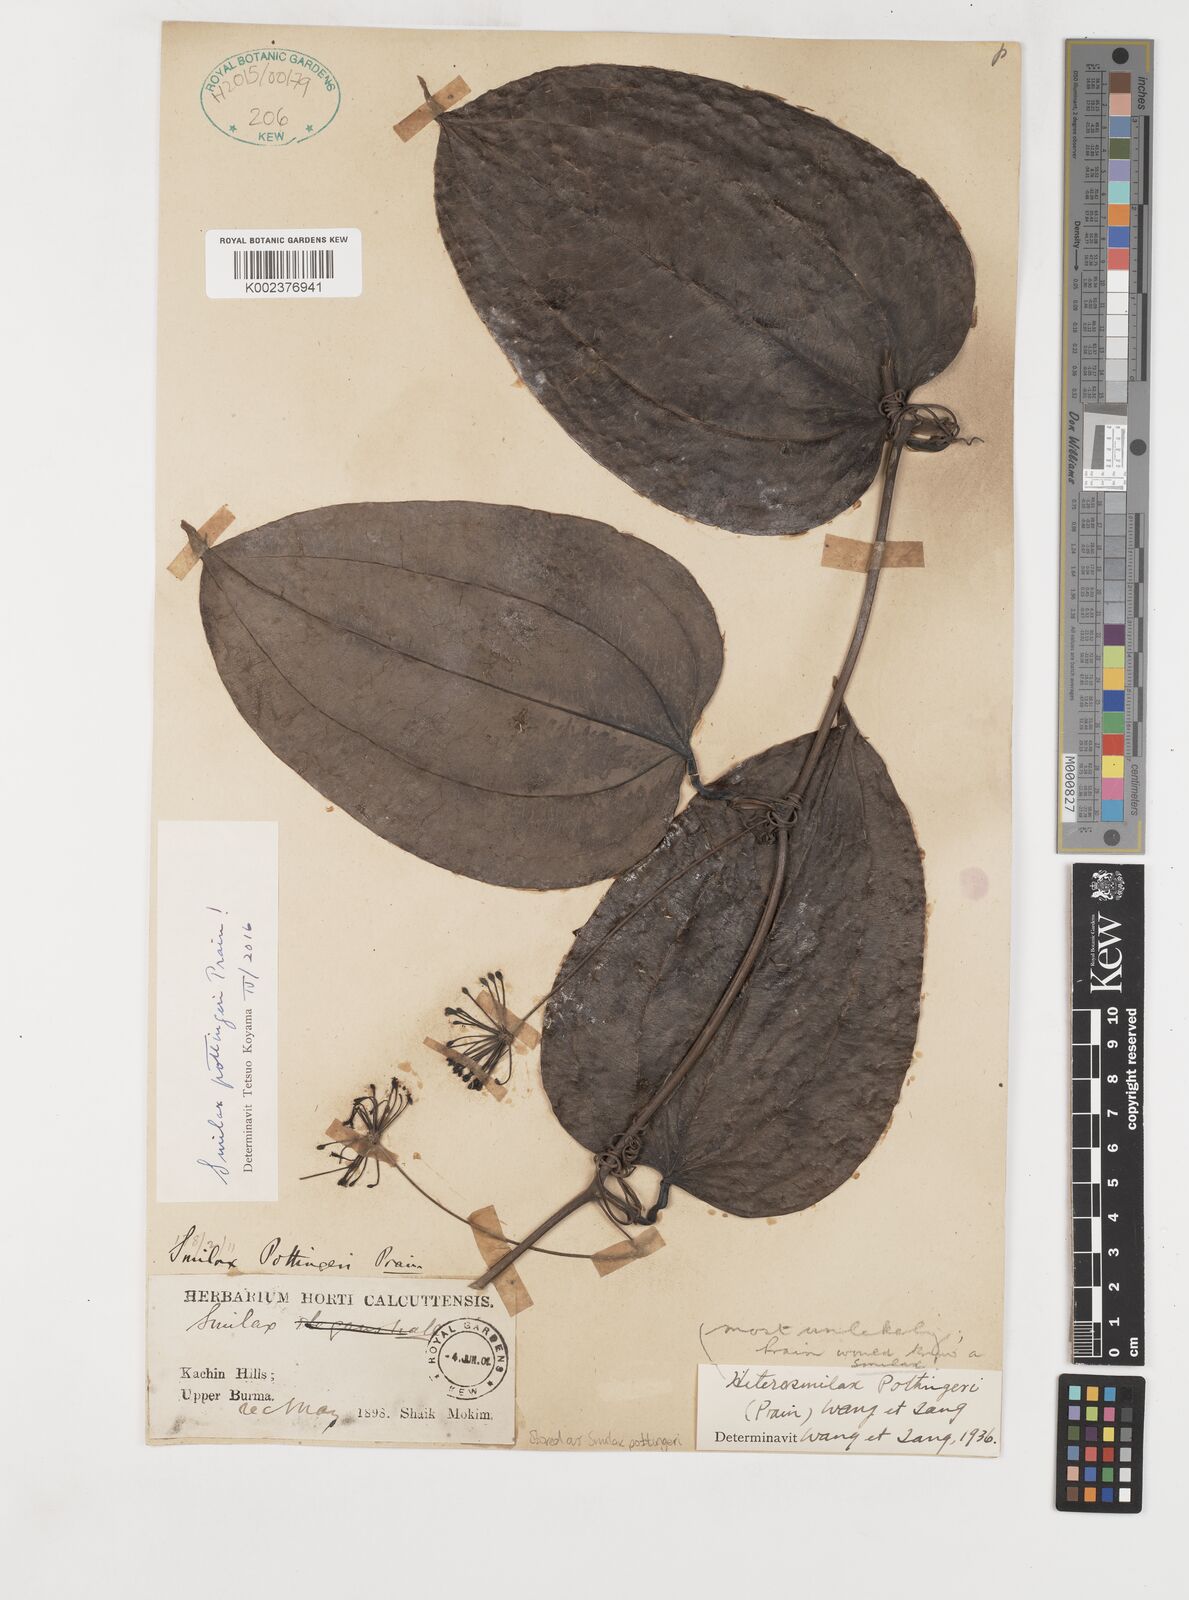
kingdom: Plantae
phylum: Tracheophyta
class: Liliopsida
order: Liliales
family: Smilacaceae
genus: Smilax
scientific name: Smilax pottingeri
